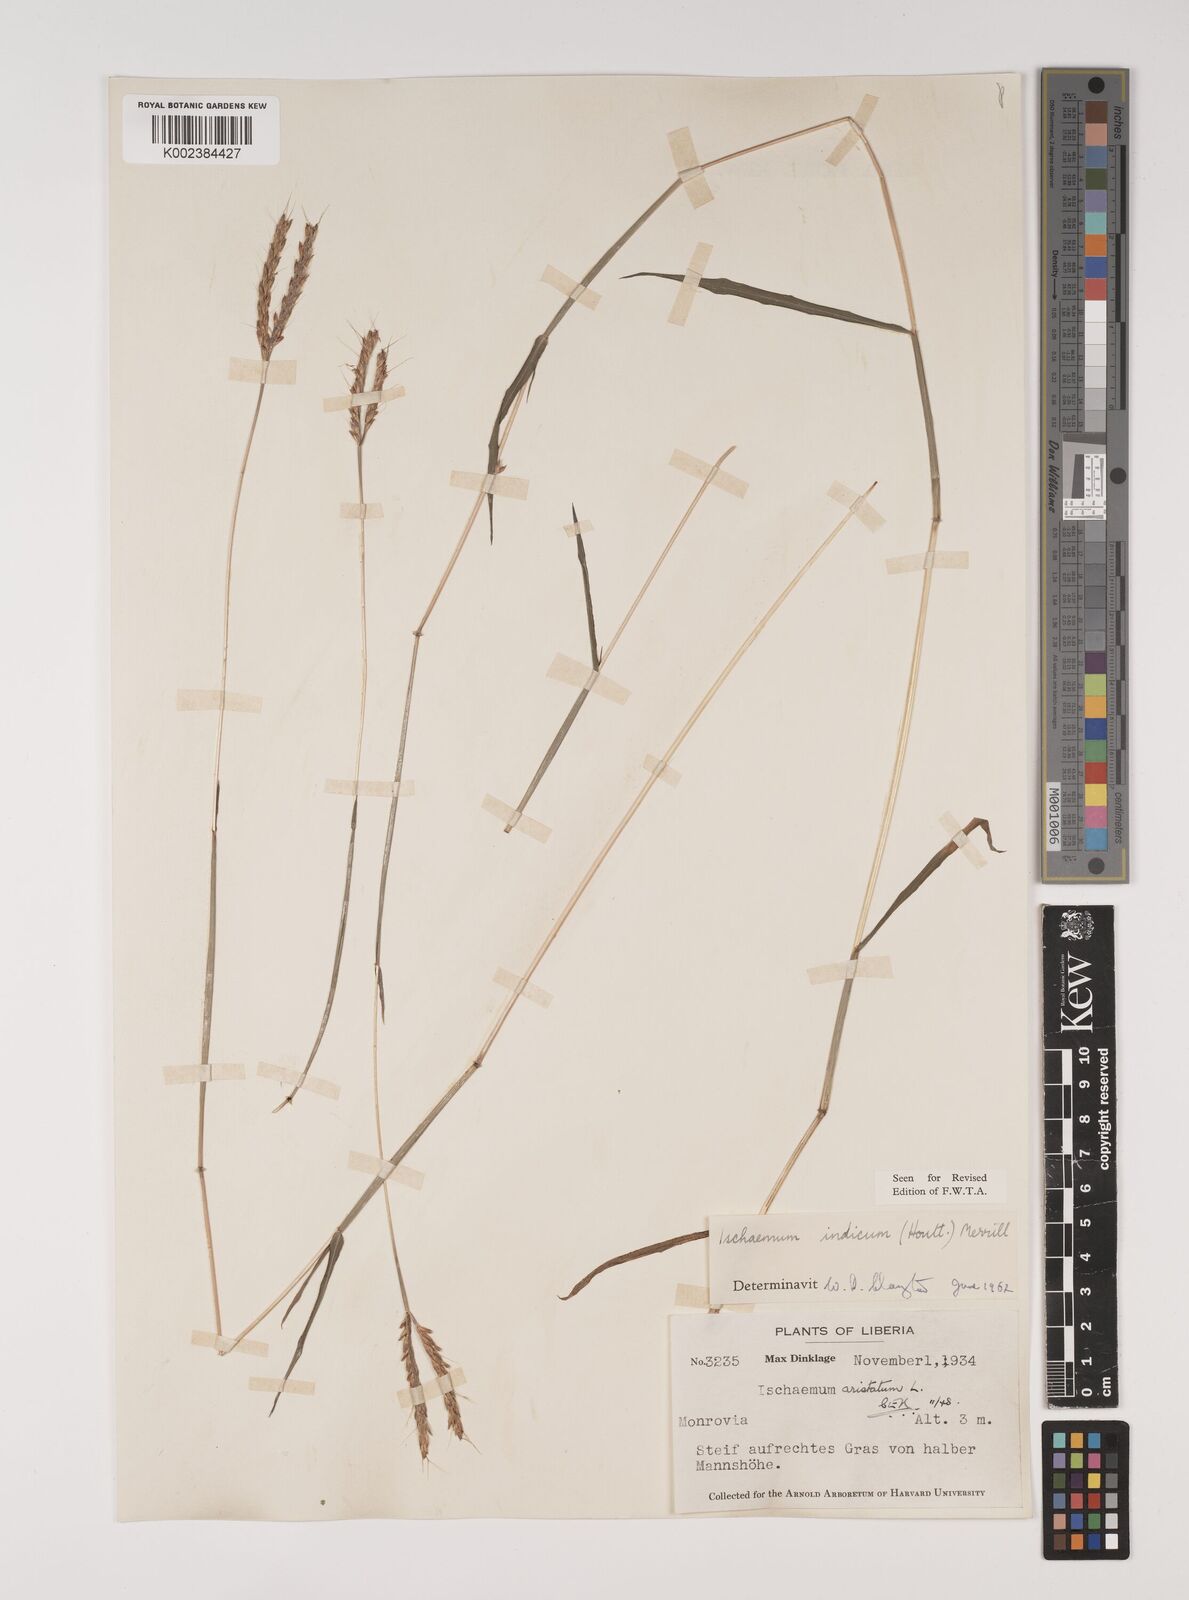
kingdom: Plantae
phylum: Tracheophyta
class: Liliopsida
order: Poales
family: Poaceae
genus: Polytrias
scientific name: Polytrias indica
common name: Indian murainagrass
